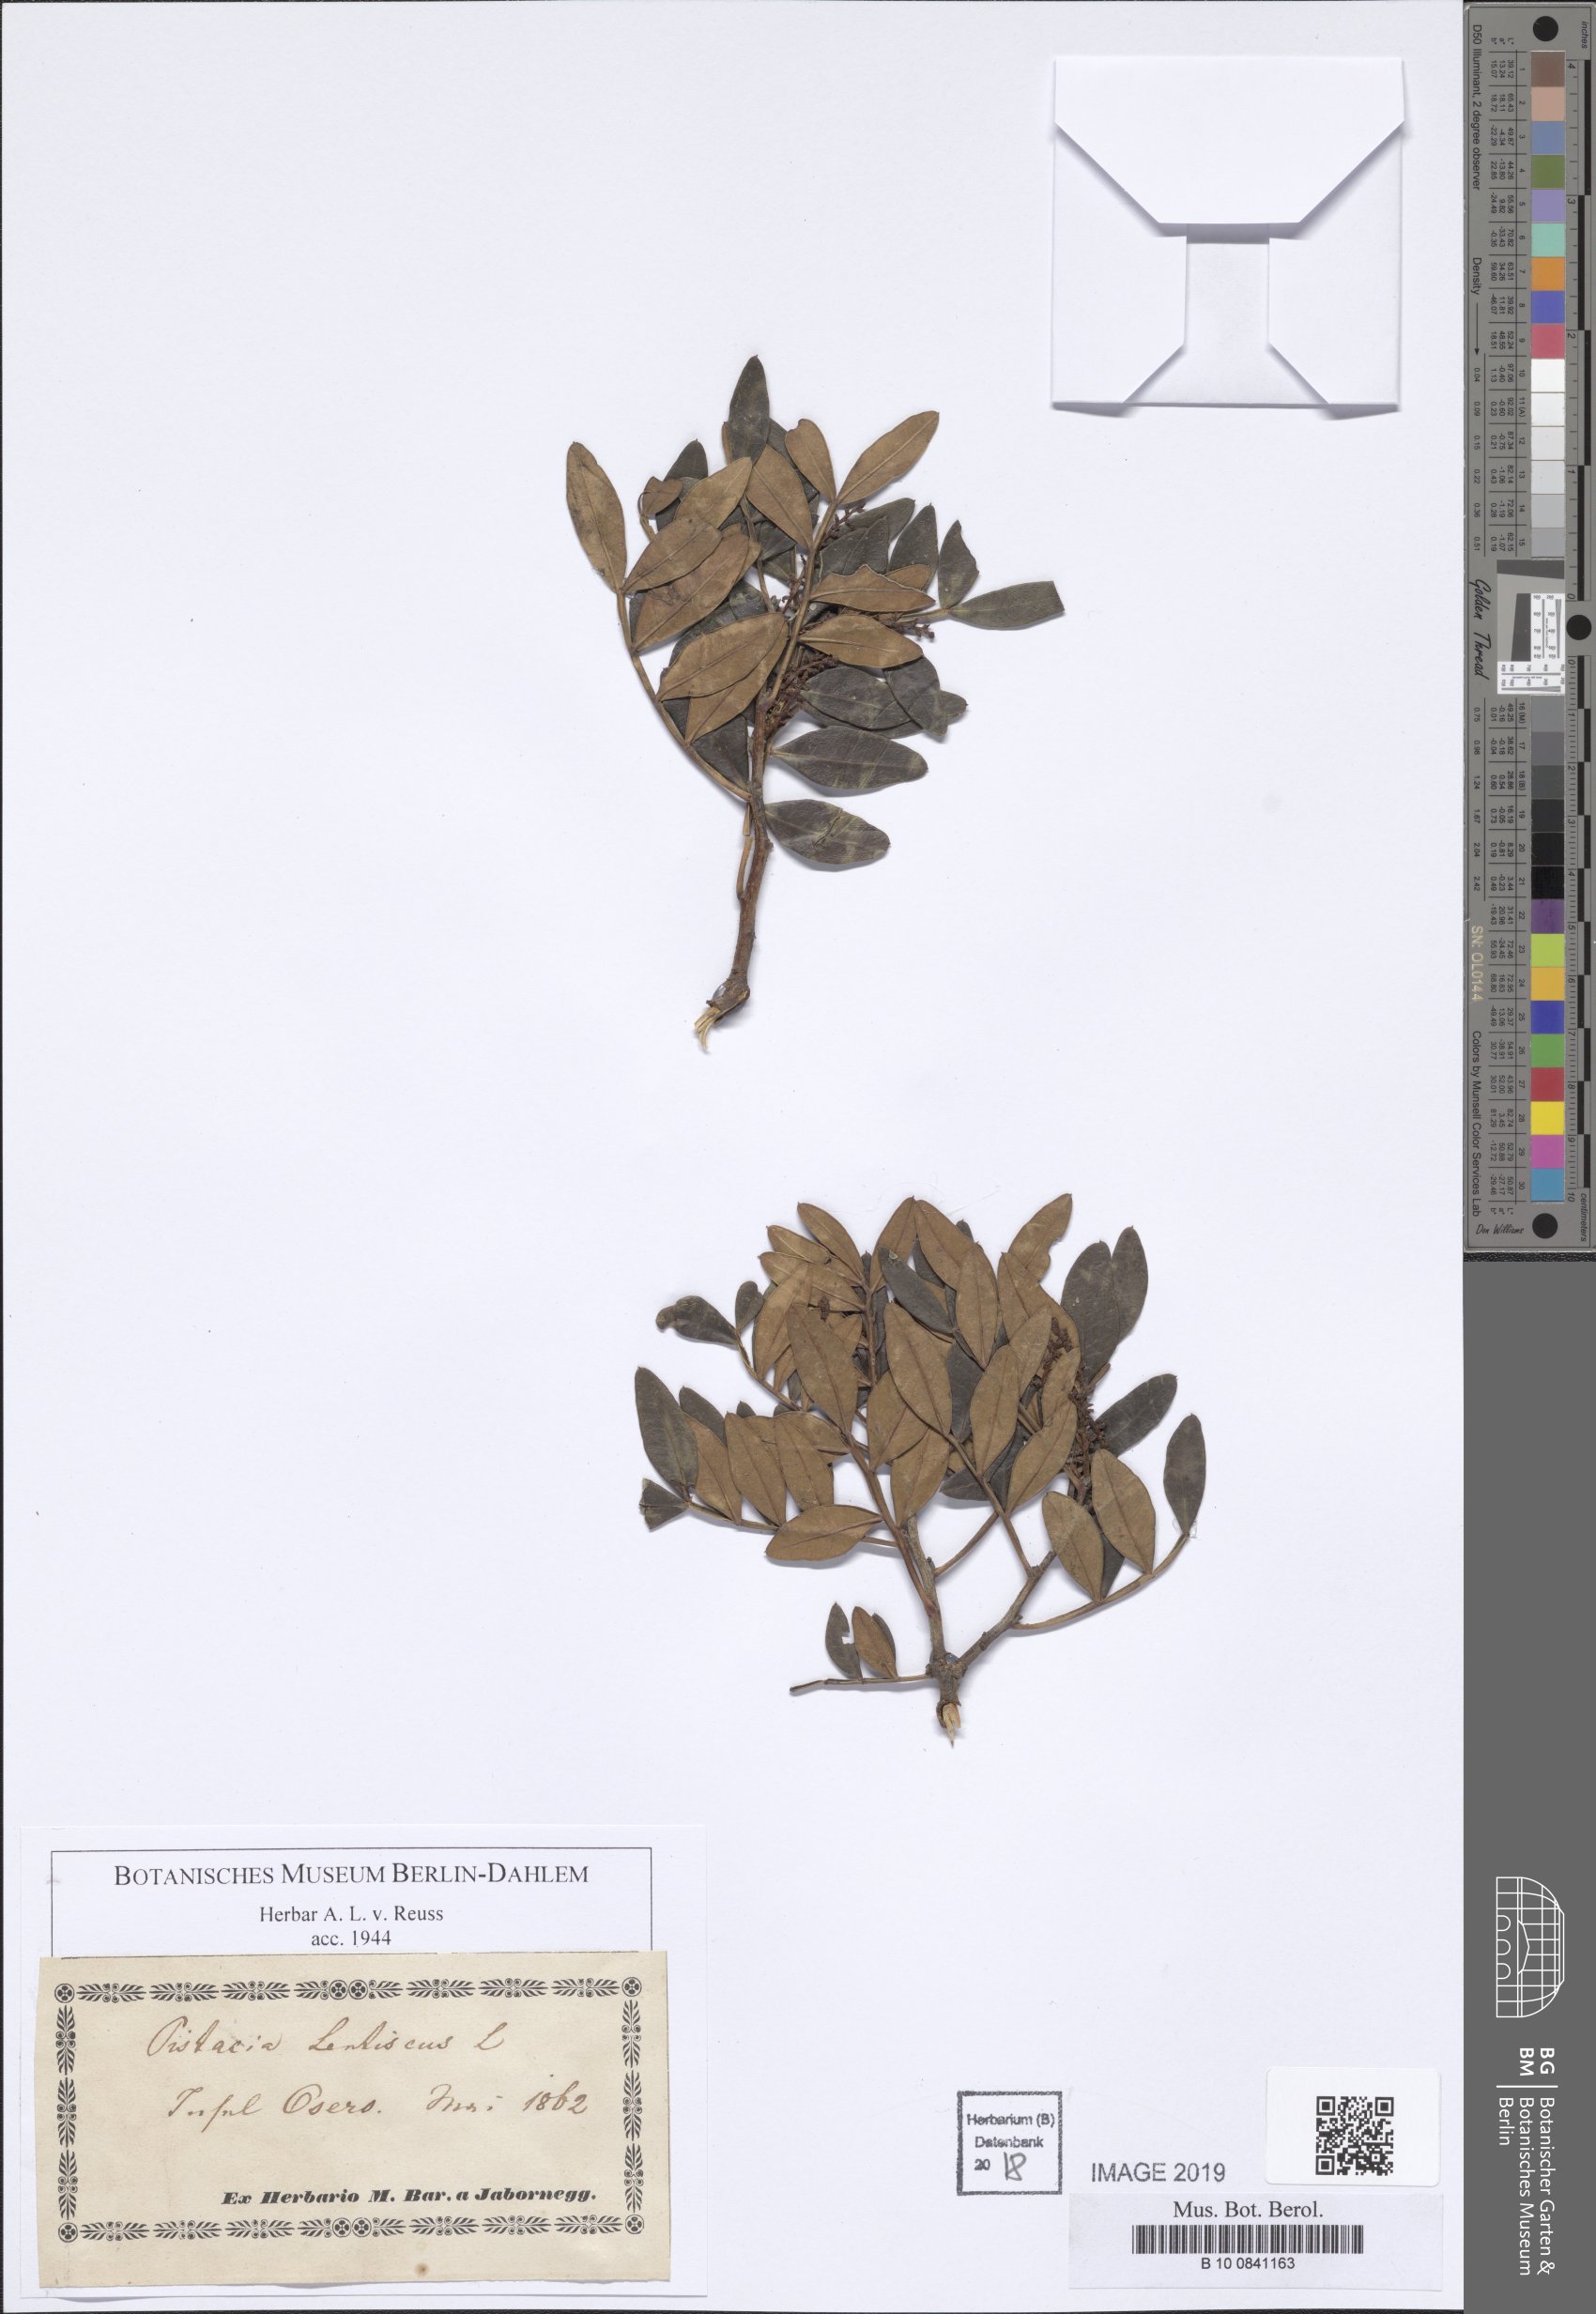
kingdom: Plantae
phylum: Tracheophyta
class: Magnoliopsida
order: Sapindales
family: Anacardiaceae
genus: Pistacia
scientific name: Pistacia lentiscus
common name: Lentisk
